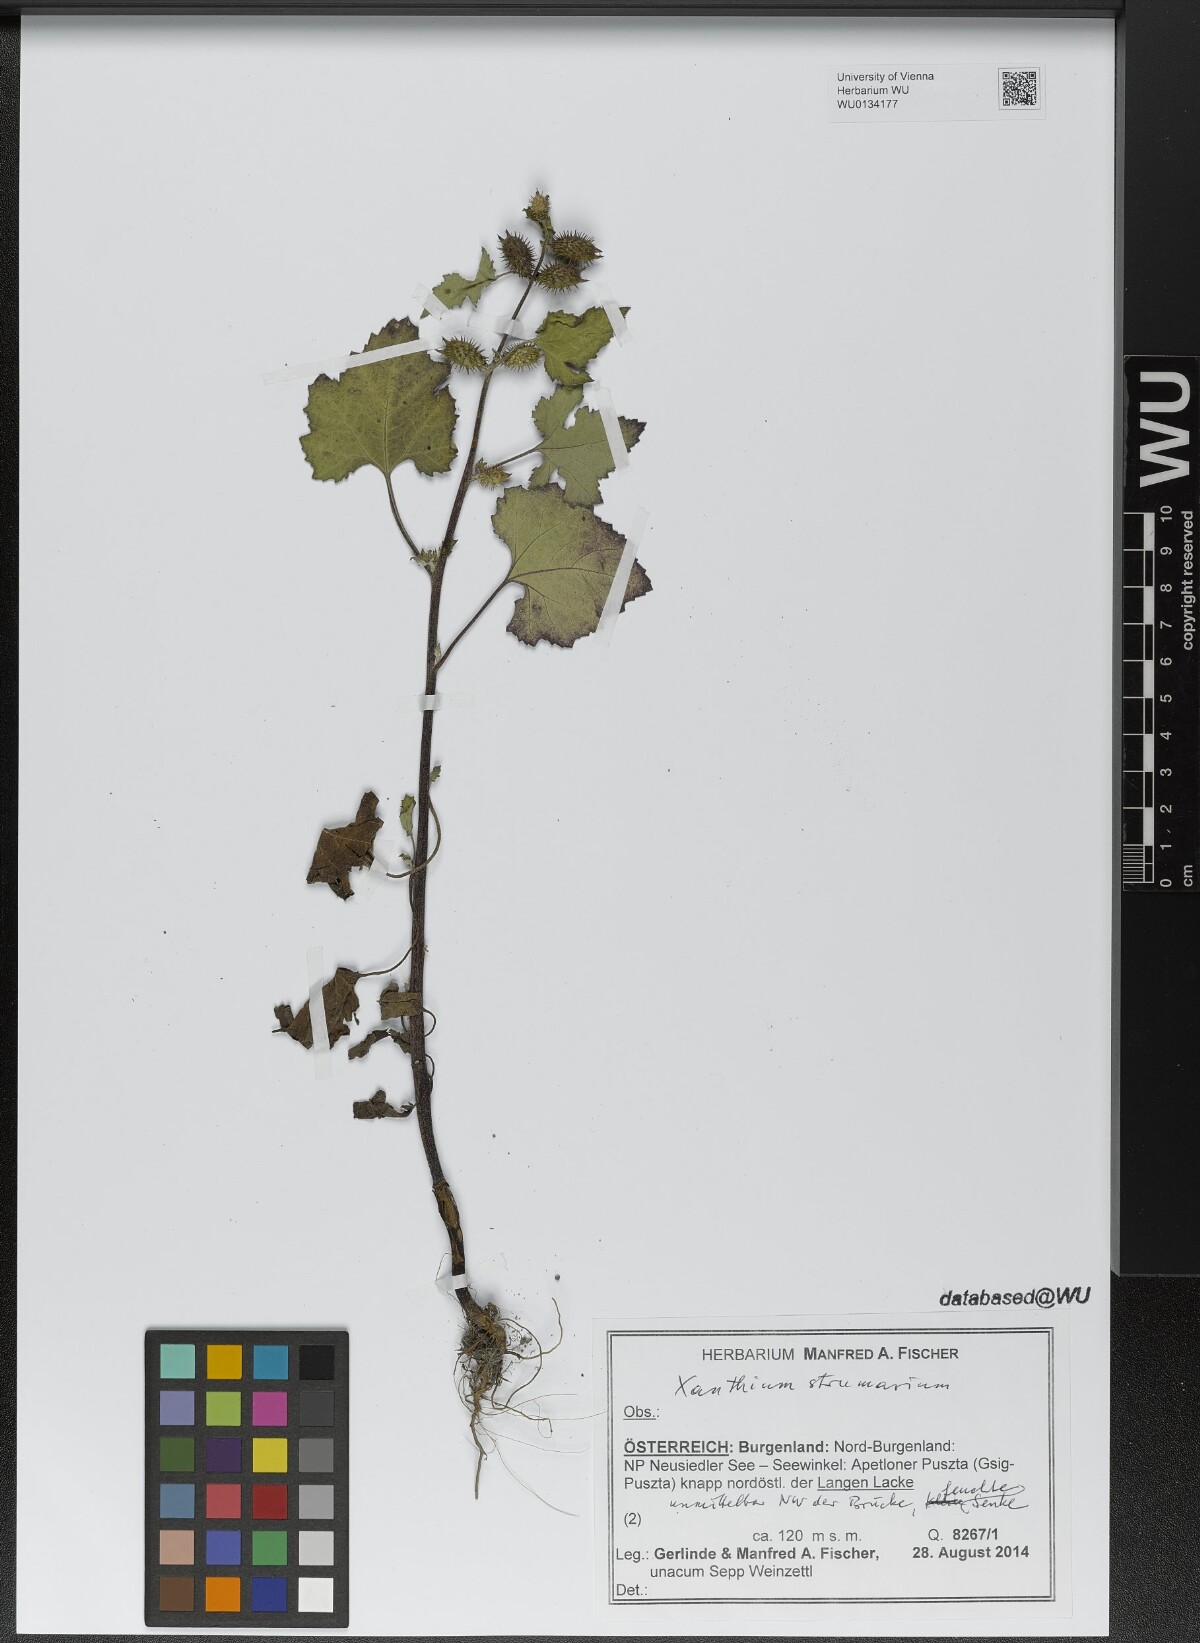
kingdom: Plantae
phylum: Tracheophyta
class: Magnoliopsida
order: Asterales
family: Asteraceae
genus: Xanthium
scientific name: Xanthium strumarium
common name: Rough cocklebur
